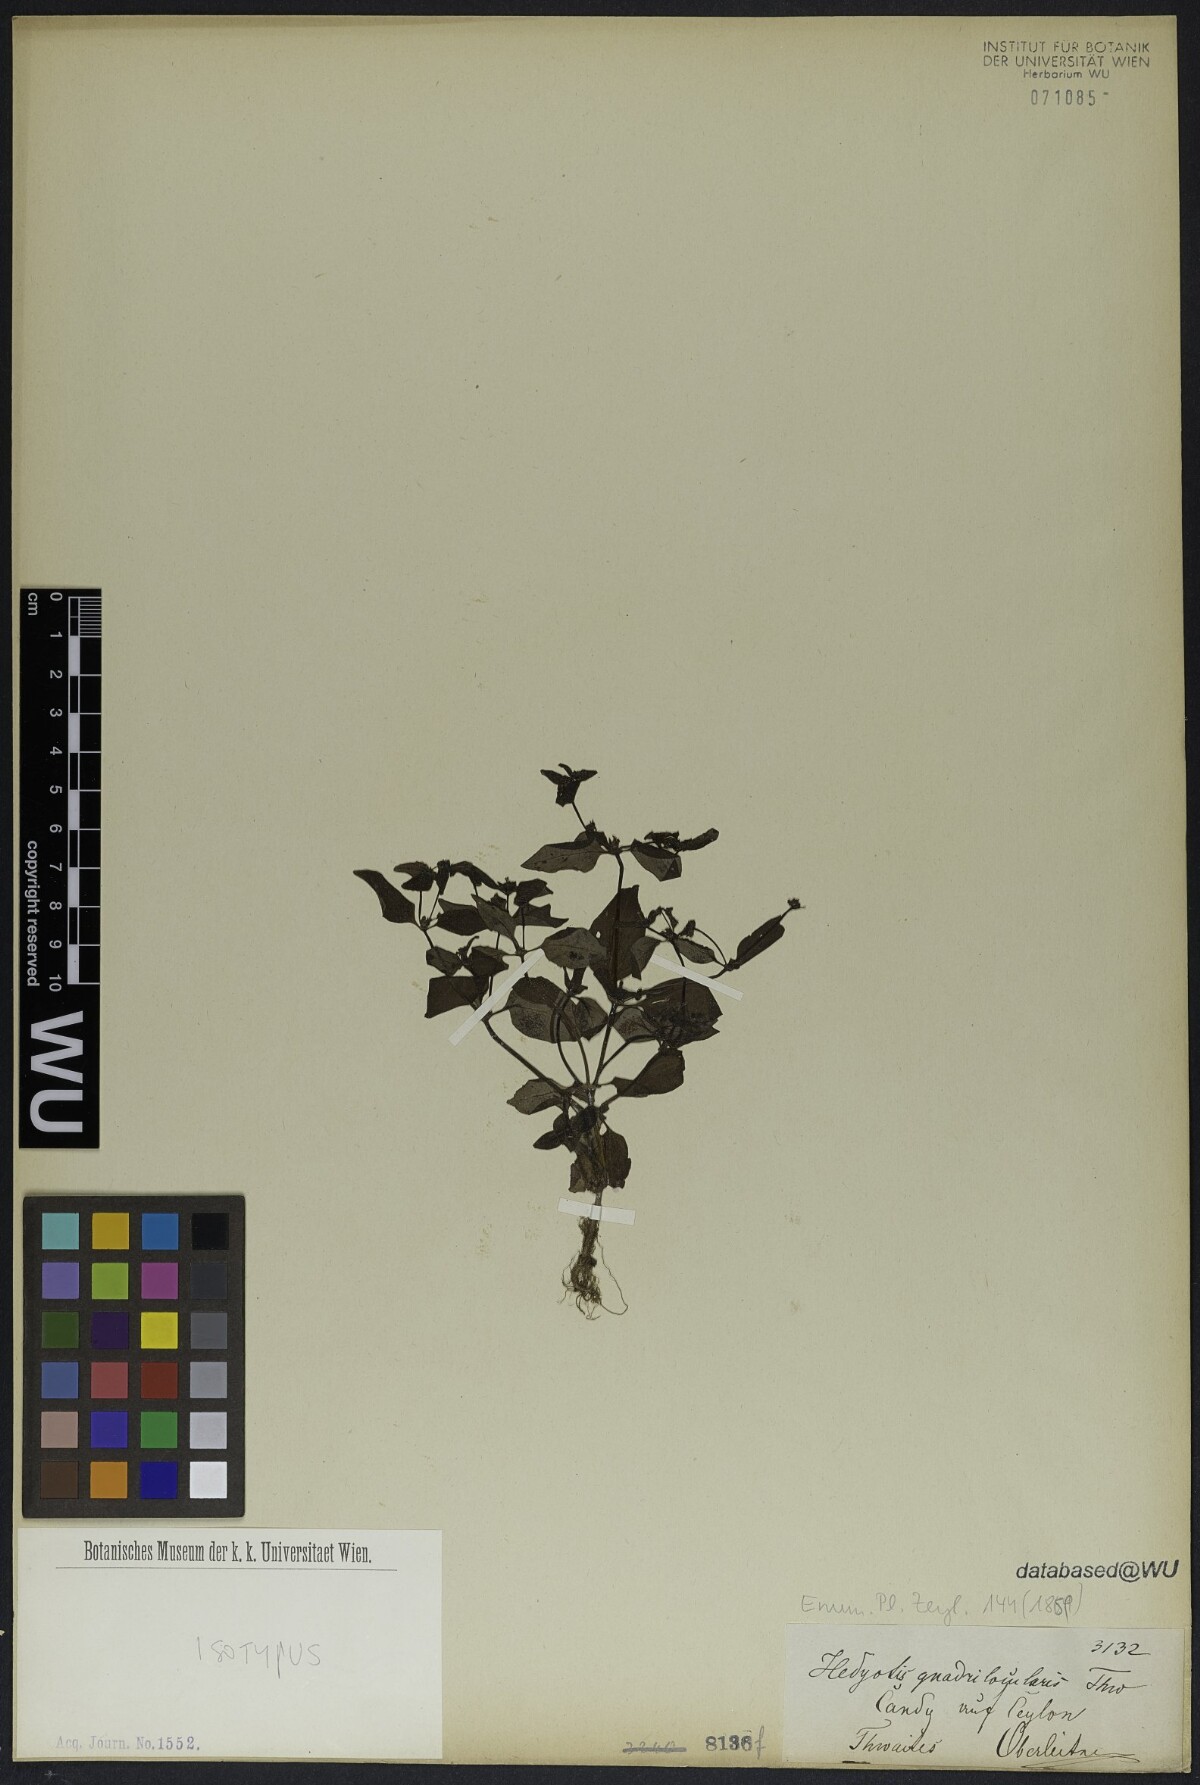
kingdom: Plantae
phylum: Tracheophyta
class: Magnoliopsida
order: Gentianales
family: Rubiaceae
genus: Neanotis
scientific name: Neanotis tubulosa
